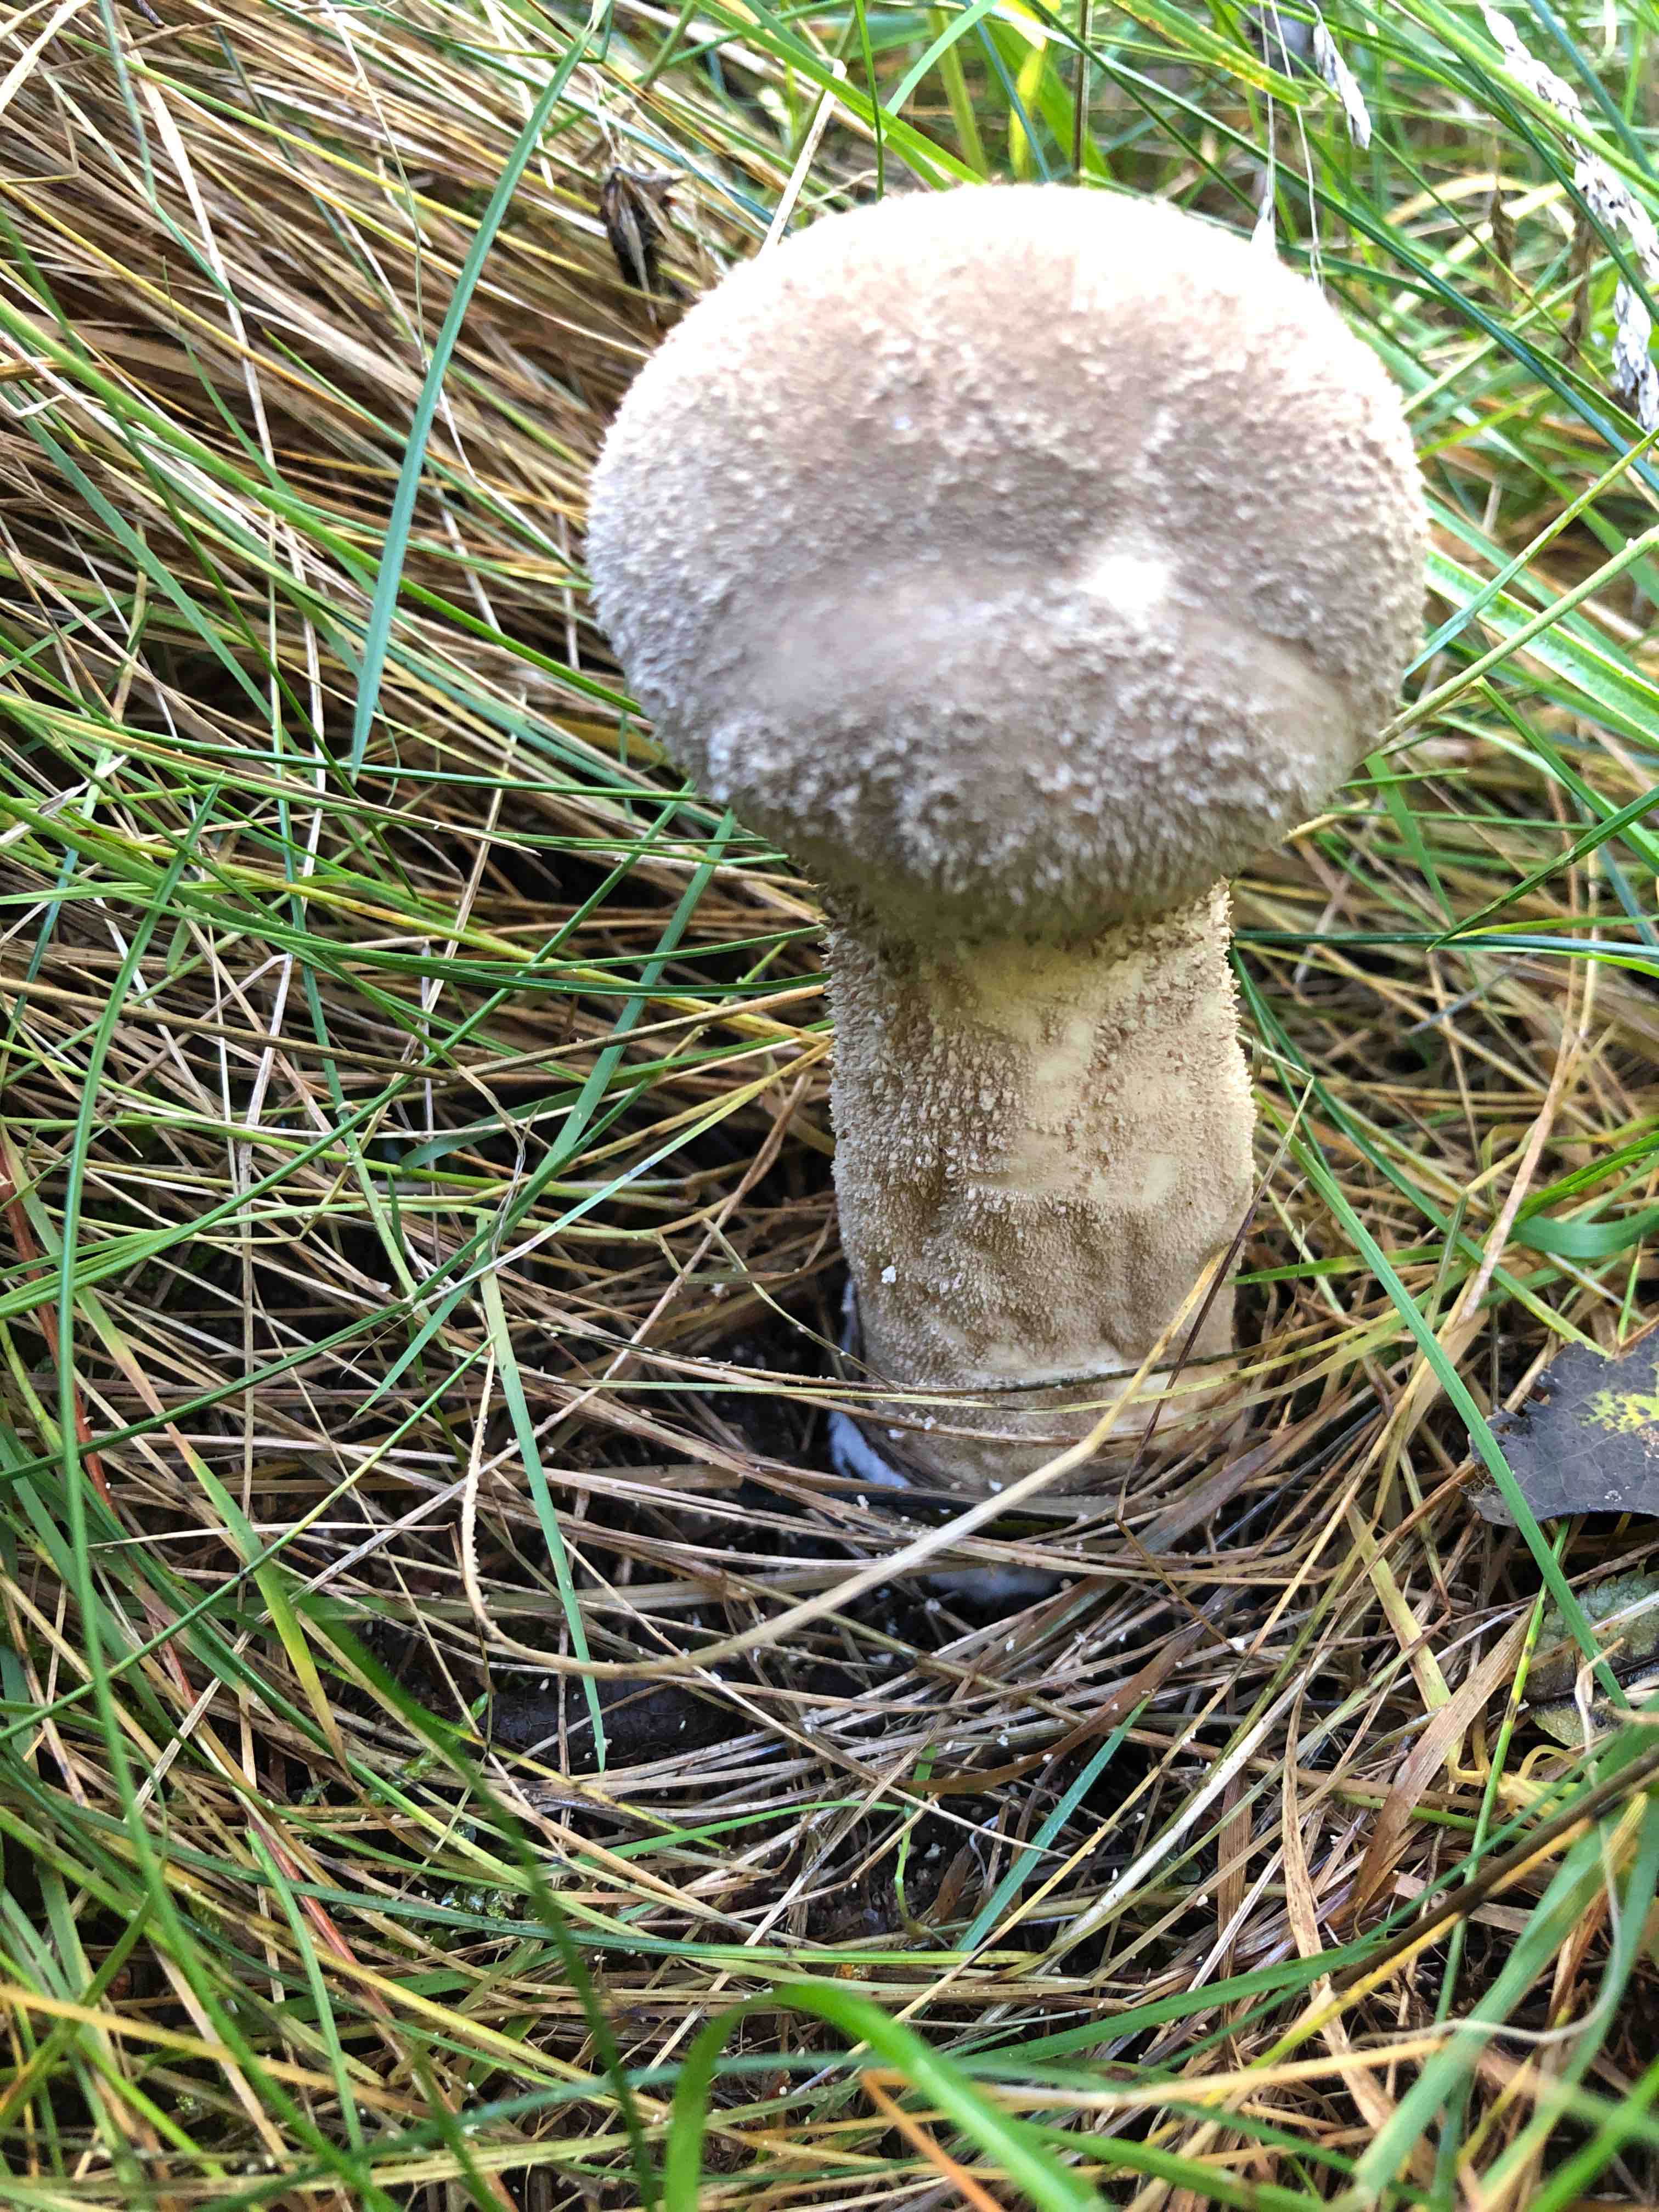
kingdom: Fungi
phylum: Basidiomycota
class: Agaricomycetes
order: Agaricales
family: Lycoperdaceae
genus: Lycoperdon
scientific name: Lycoperdon excipuliforme
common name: højstokket støvbold
